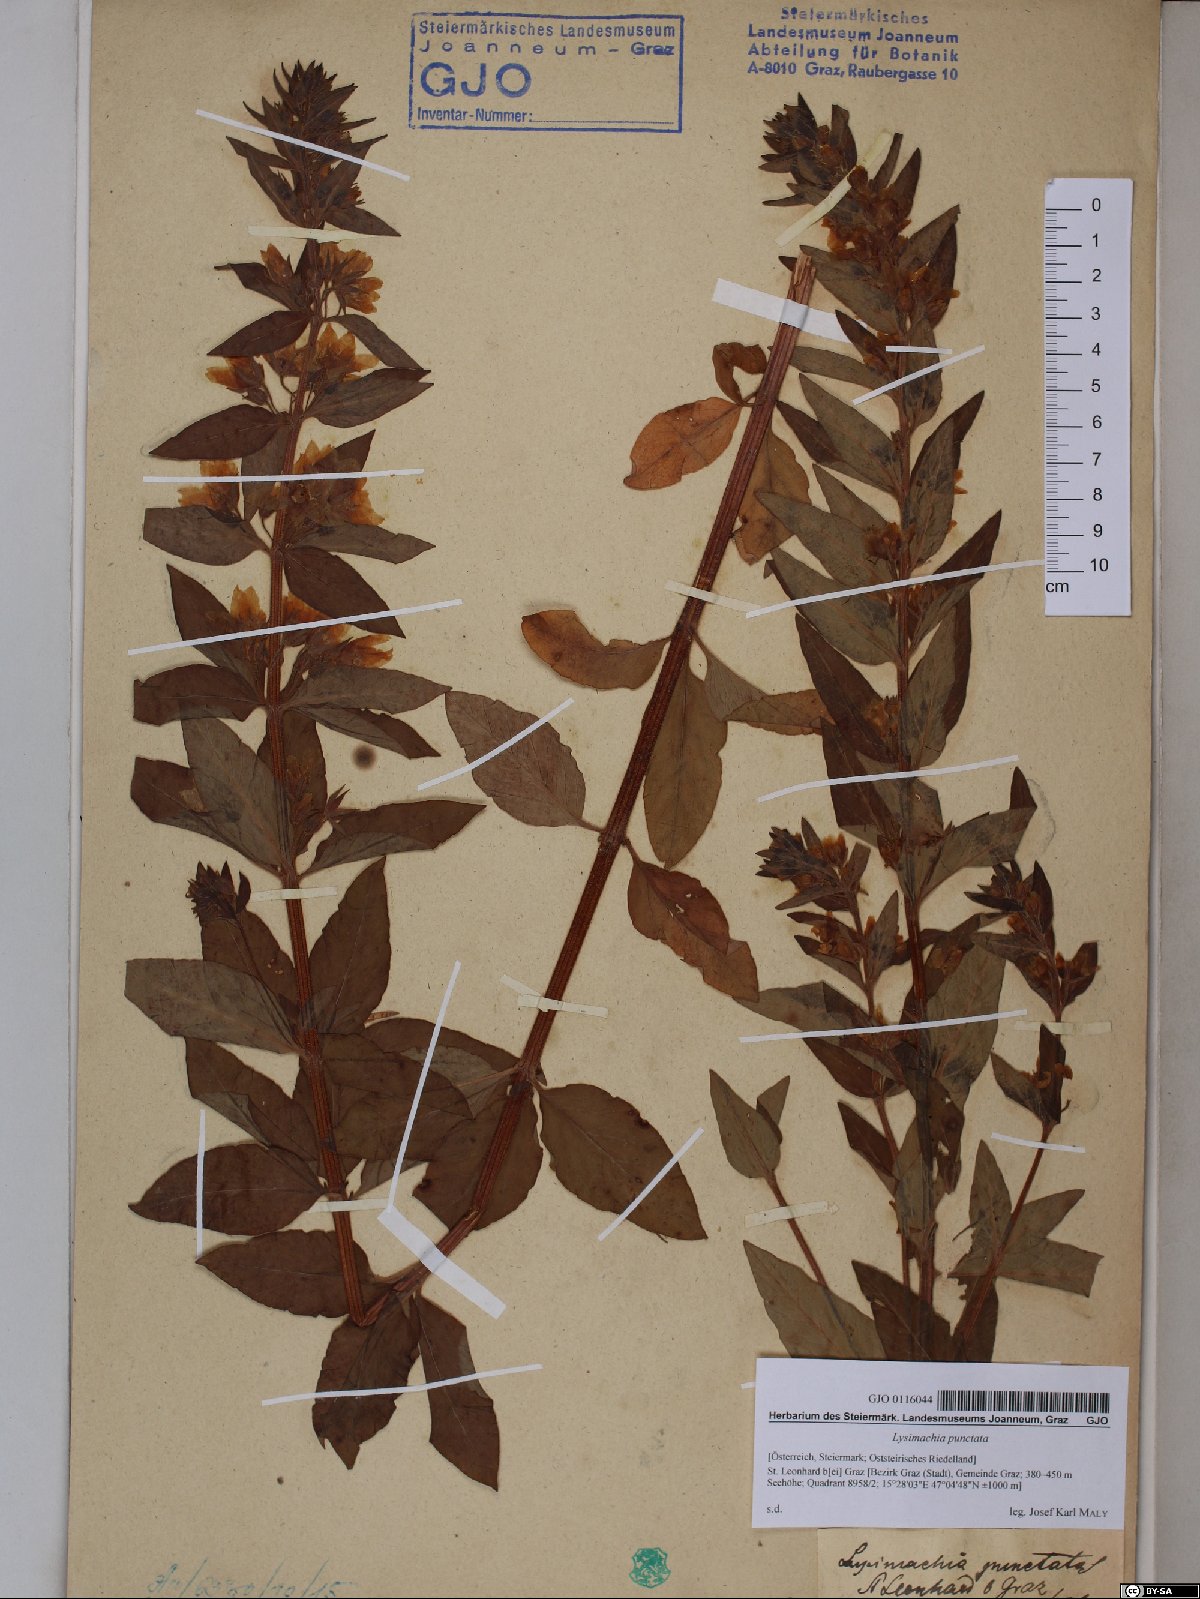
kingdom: Plantae
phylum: Tracheophyta
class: Magnoliopsida
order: Ericales
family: Primulaceae
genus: Lysimachia
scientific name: Lysimachia punctata
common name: Dotted loosestrife
